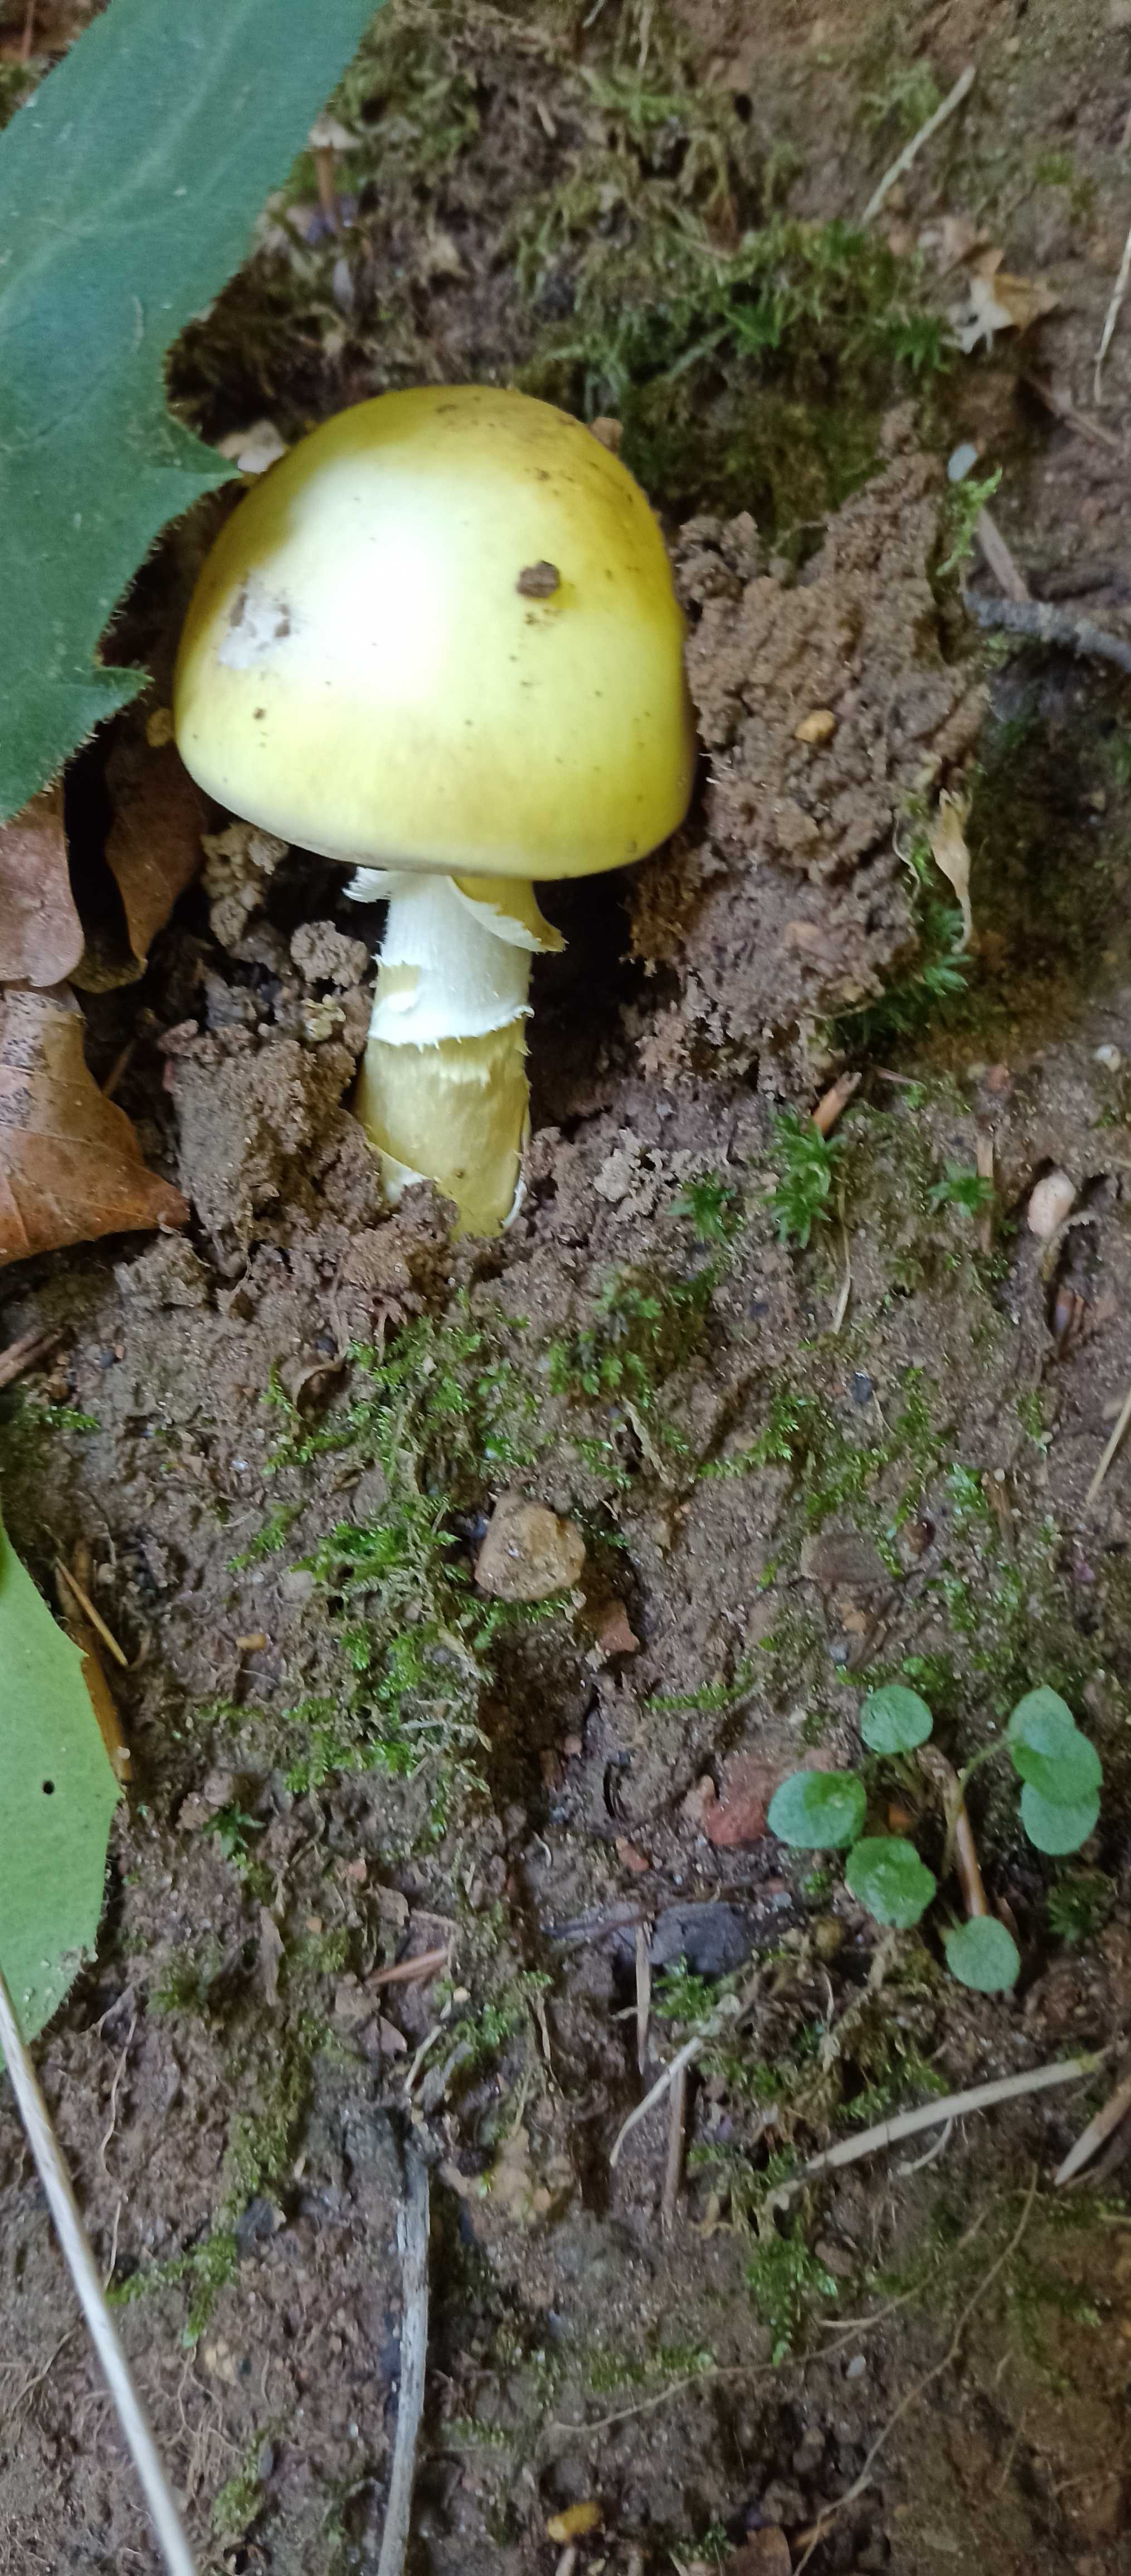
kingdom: Fungi
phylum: Basidiomycota
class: Agaricomycetes
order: Agaricales
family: Amanitaceae
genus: Amanita
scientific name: Amanita phalloides
